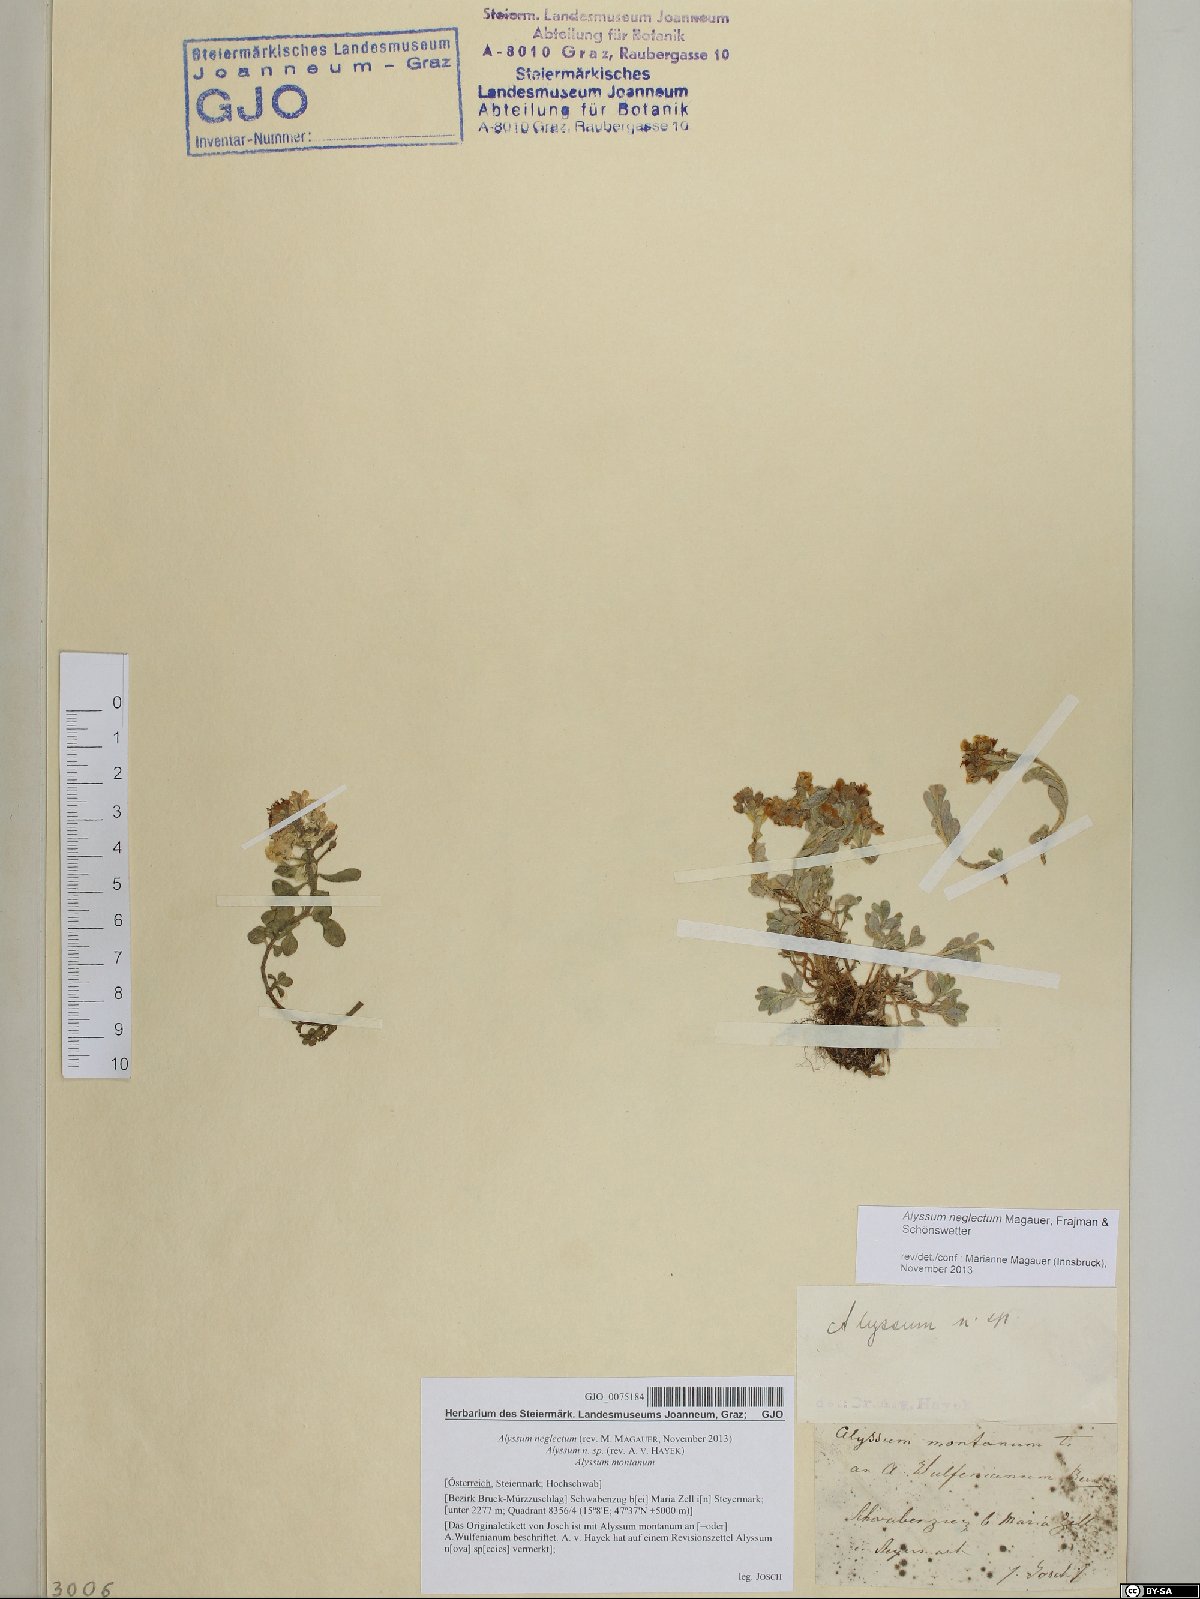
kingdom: Plantae
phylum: Tracheophyta
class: Magnoliopsida
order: Brassicales
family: Brassicaceae
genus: Alyssum
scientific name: Alyssum neglectum
